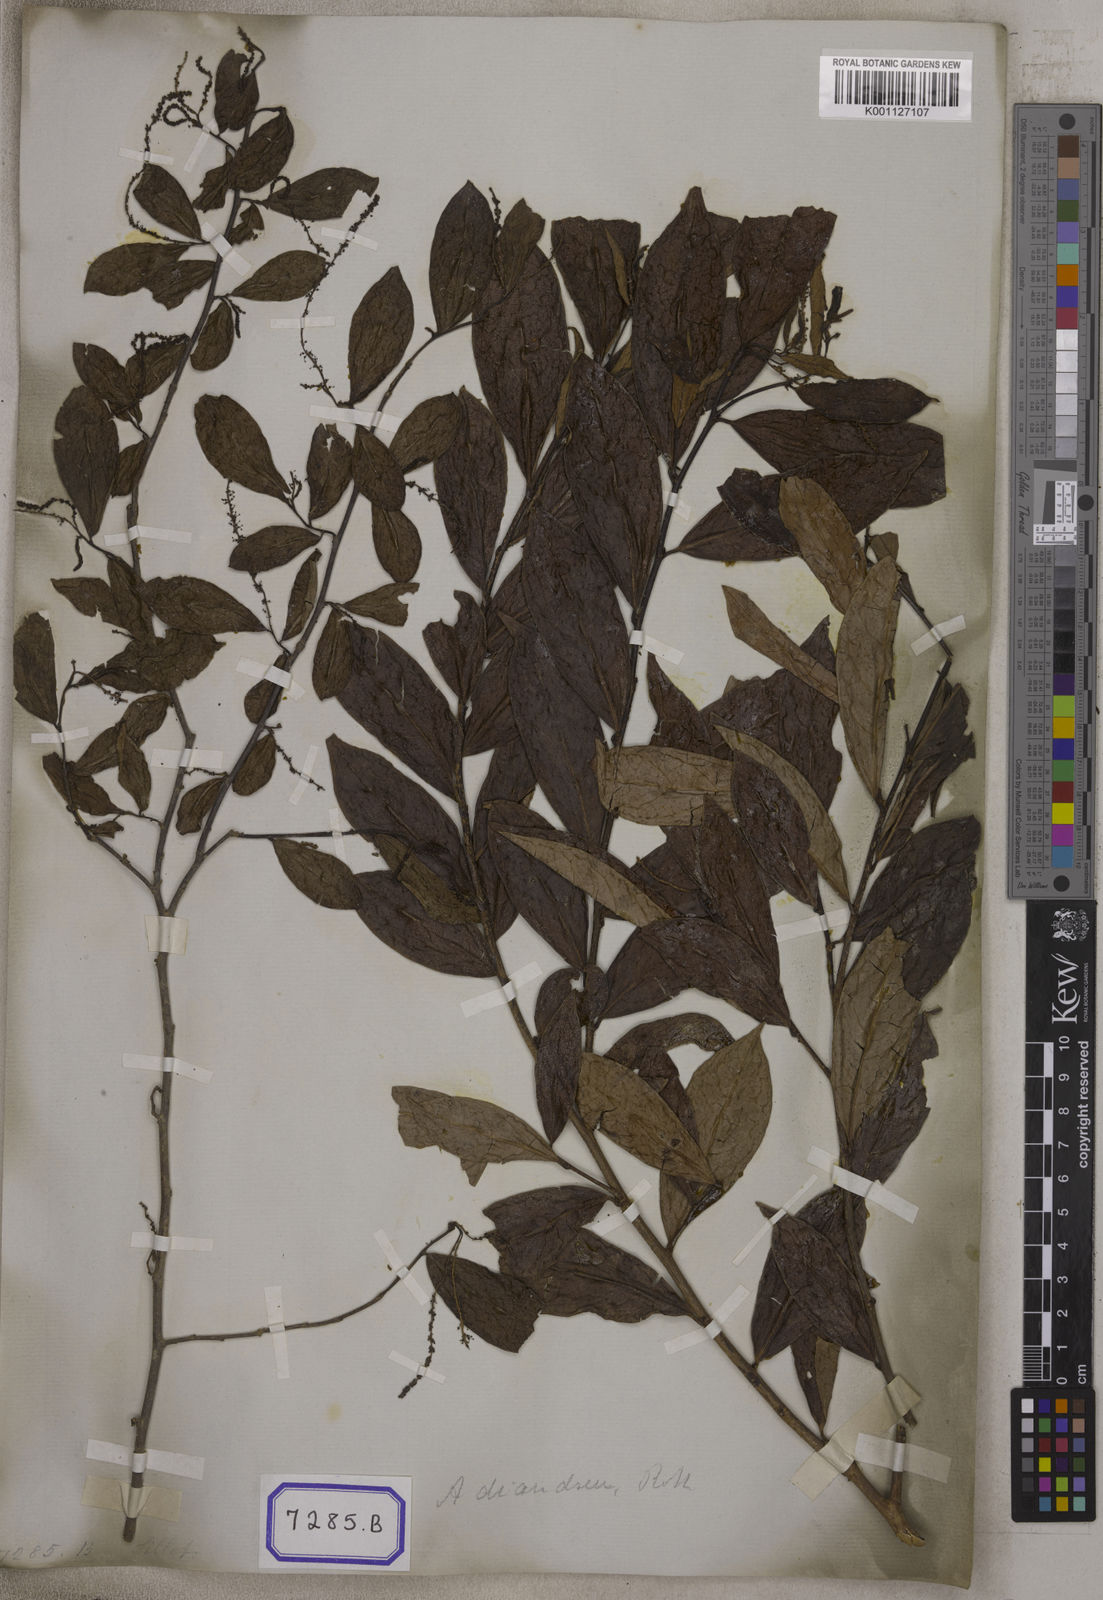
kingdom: Plantae
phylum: Tracheophyta
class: Magnoliopsida
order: Malpighiales
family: Phyllanthaceae
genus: Antidesma
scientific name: Antidesma
